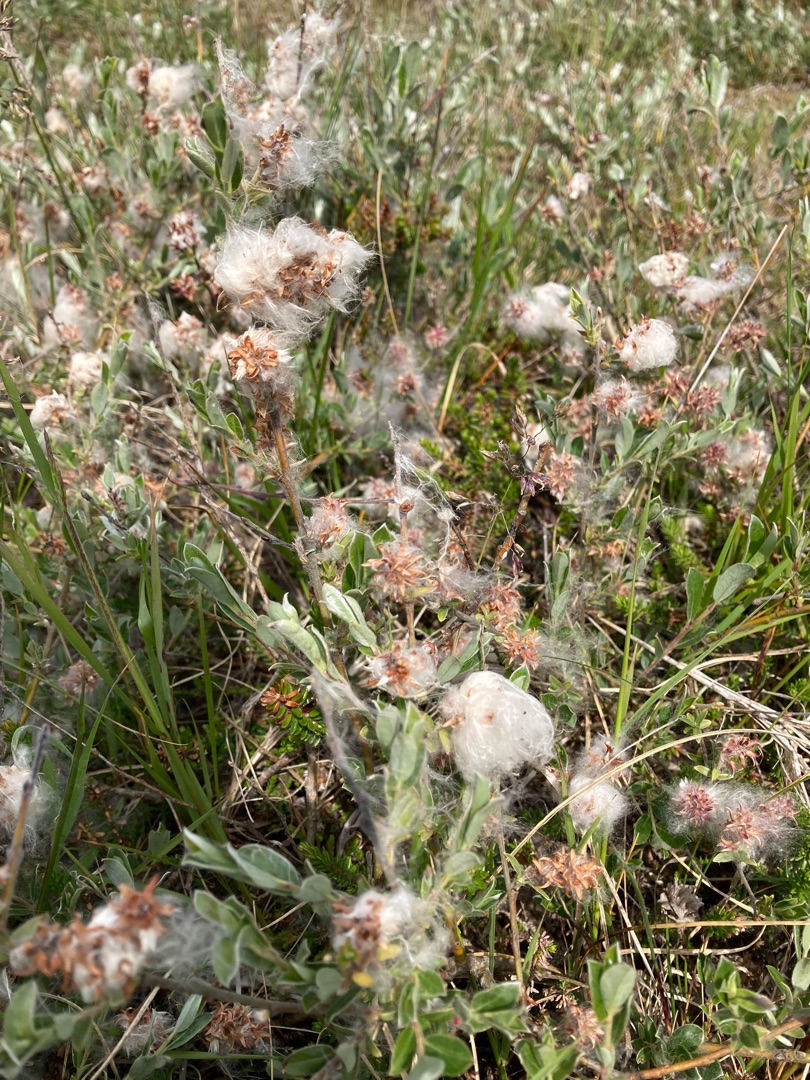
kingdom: Plantae
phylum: Tracheophyta
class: Magnoliopsida
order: Malpighiales
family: Salicaceae
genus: Salix
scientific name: Salix repens
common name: Gråris
